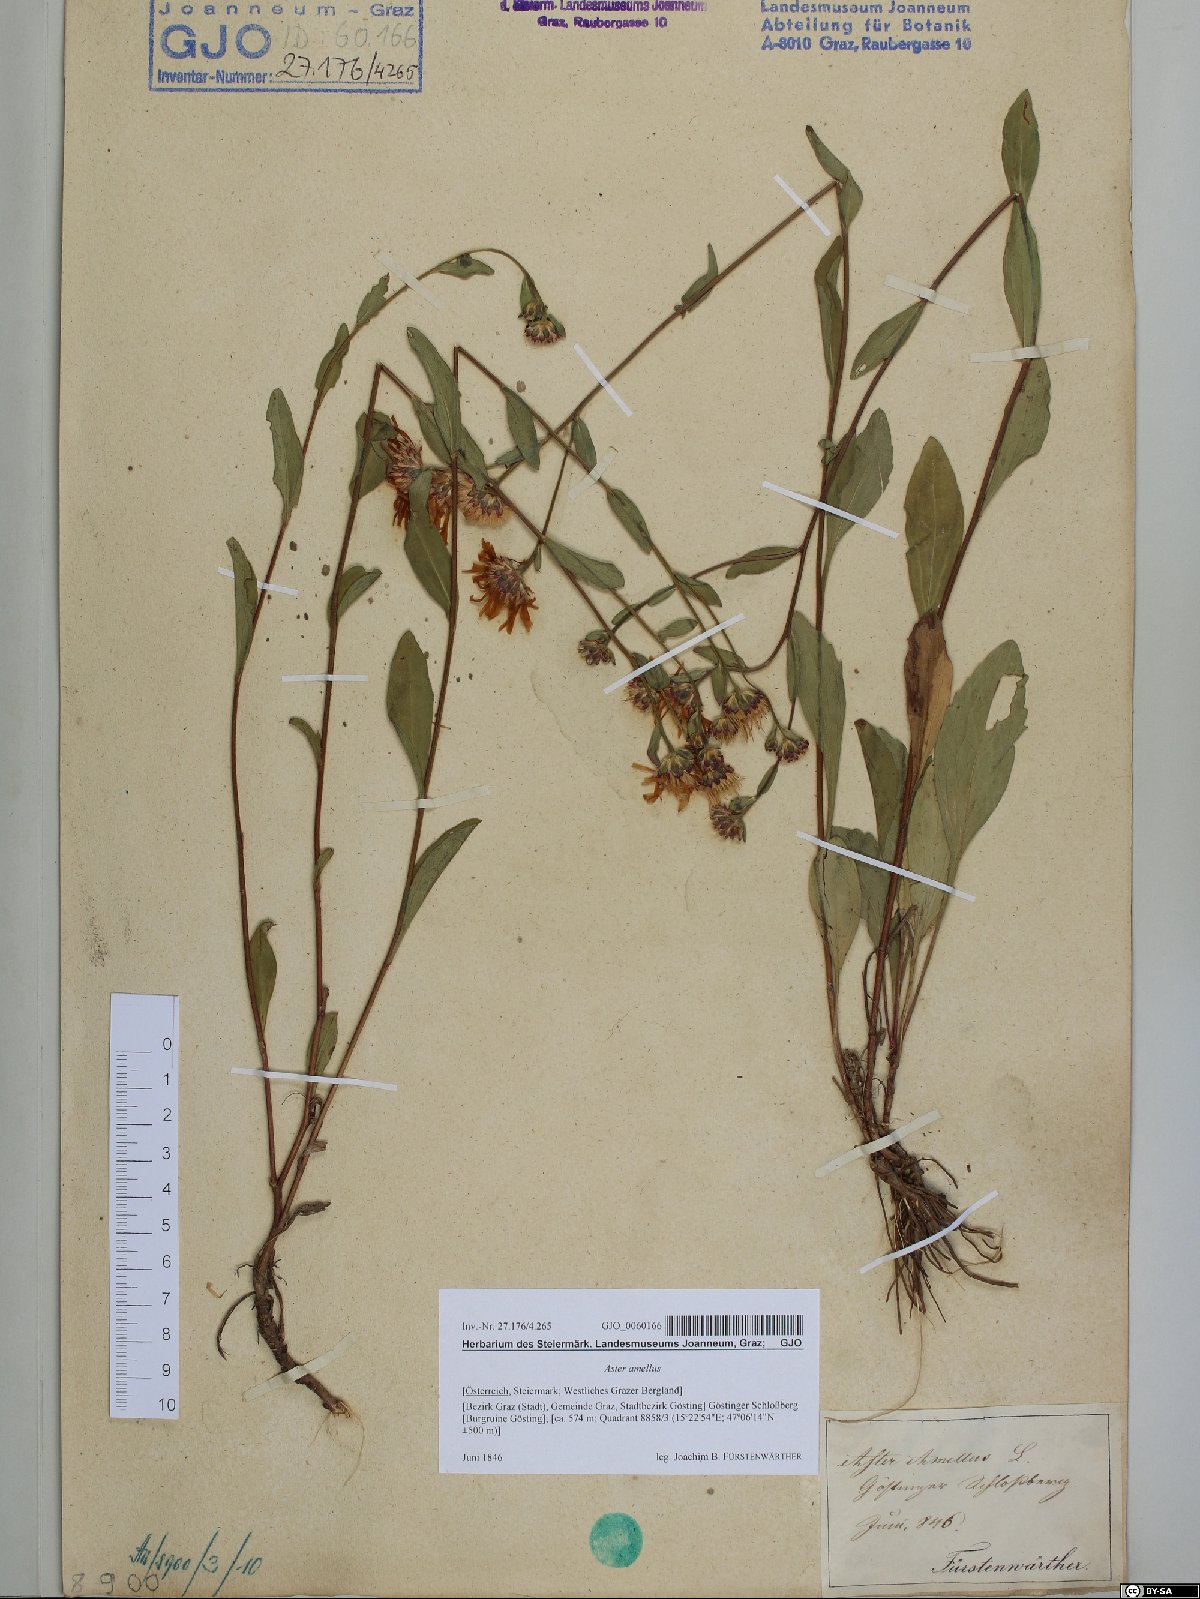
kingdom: Plantae
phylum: Tracheophyta
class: Magnoliopsida
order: Asterales
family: Asteraceae
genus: Aster
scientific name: Aster amellus
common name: European michaelmas daisy
